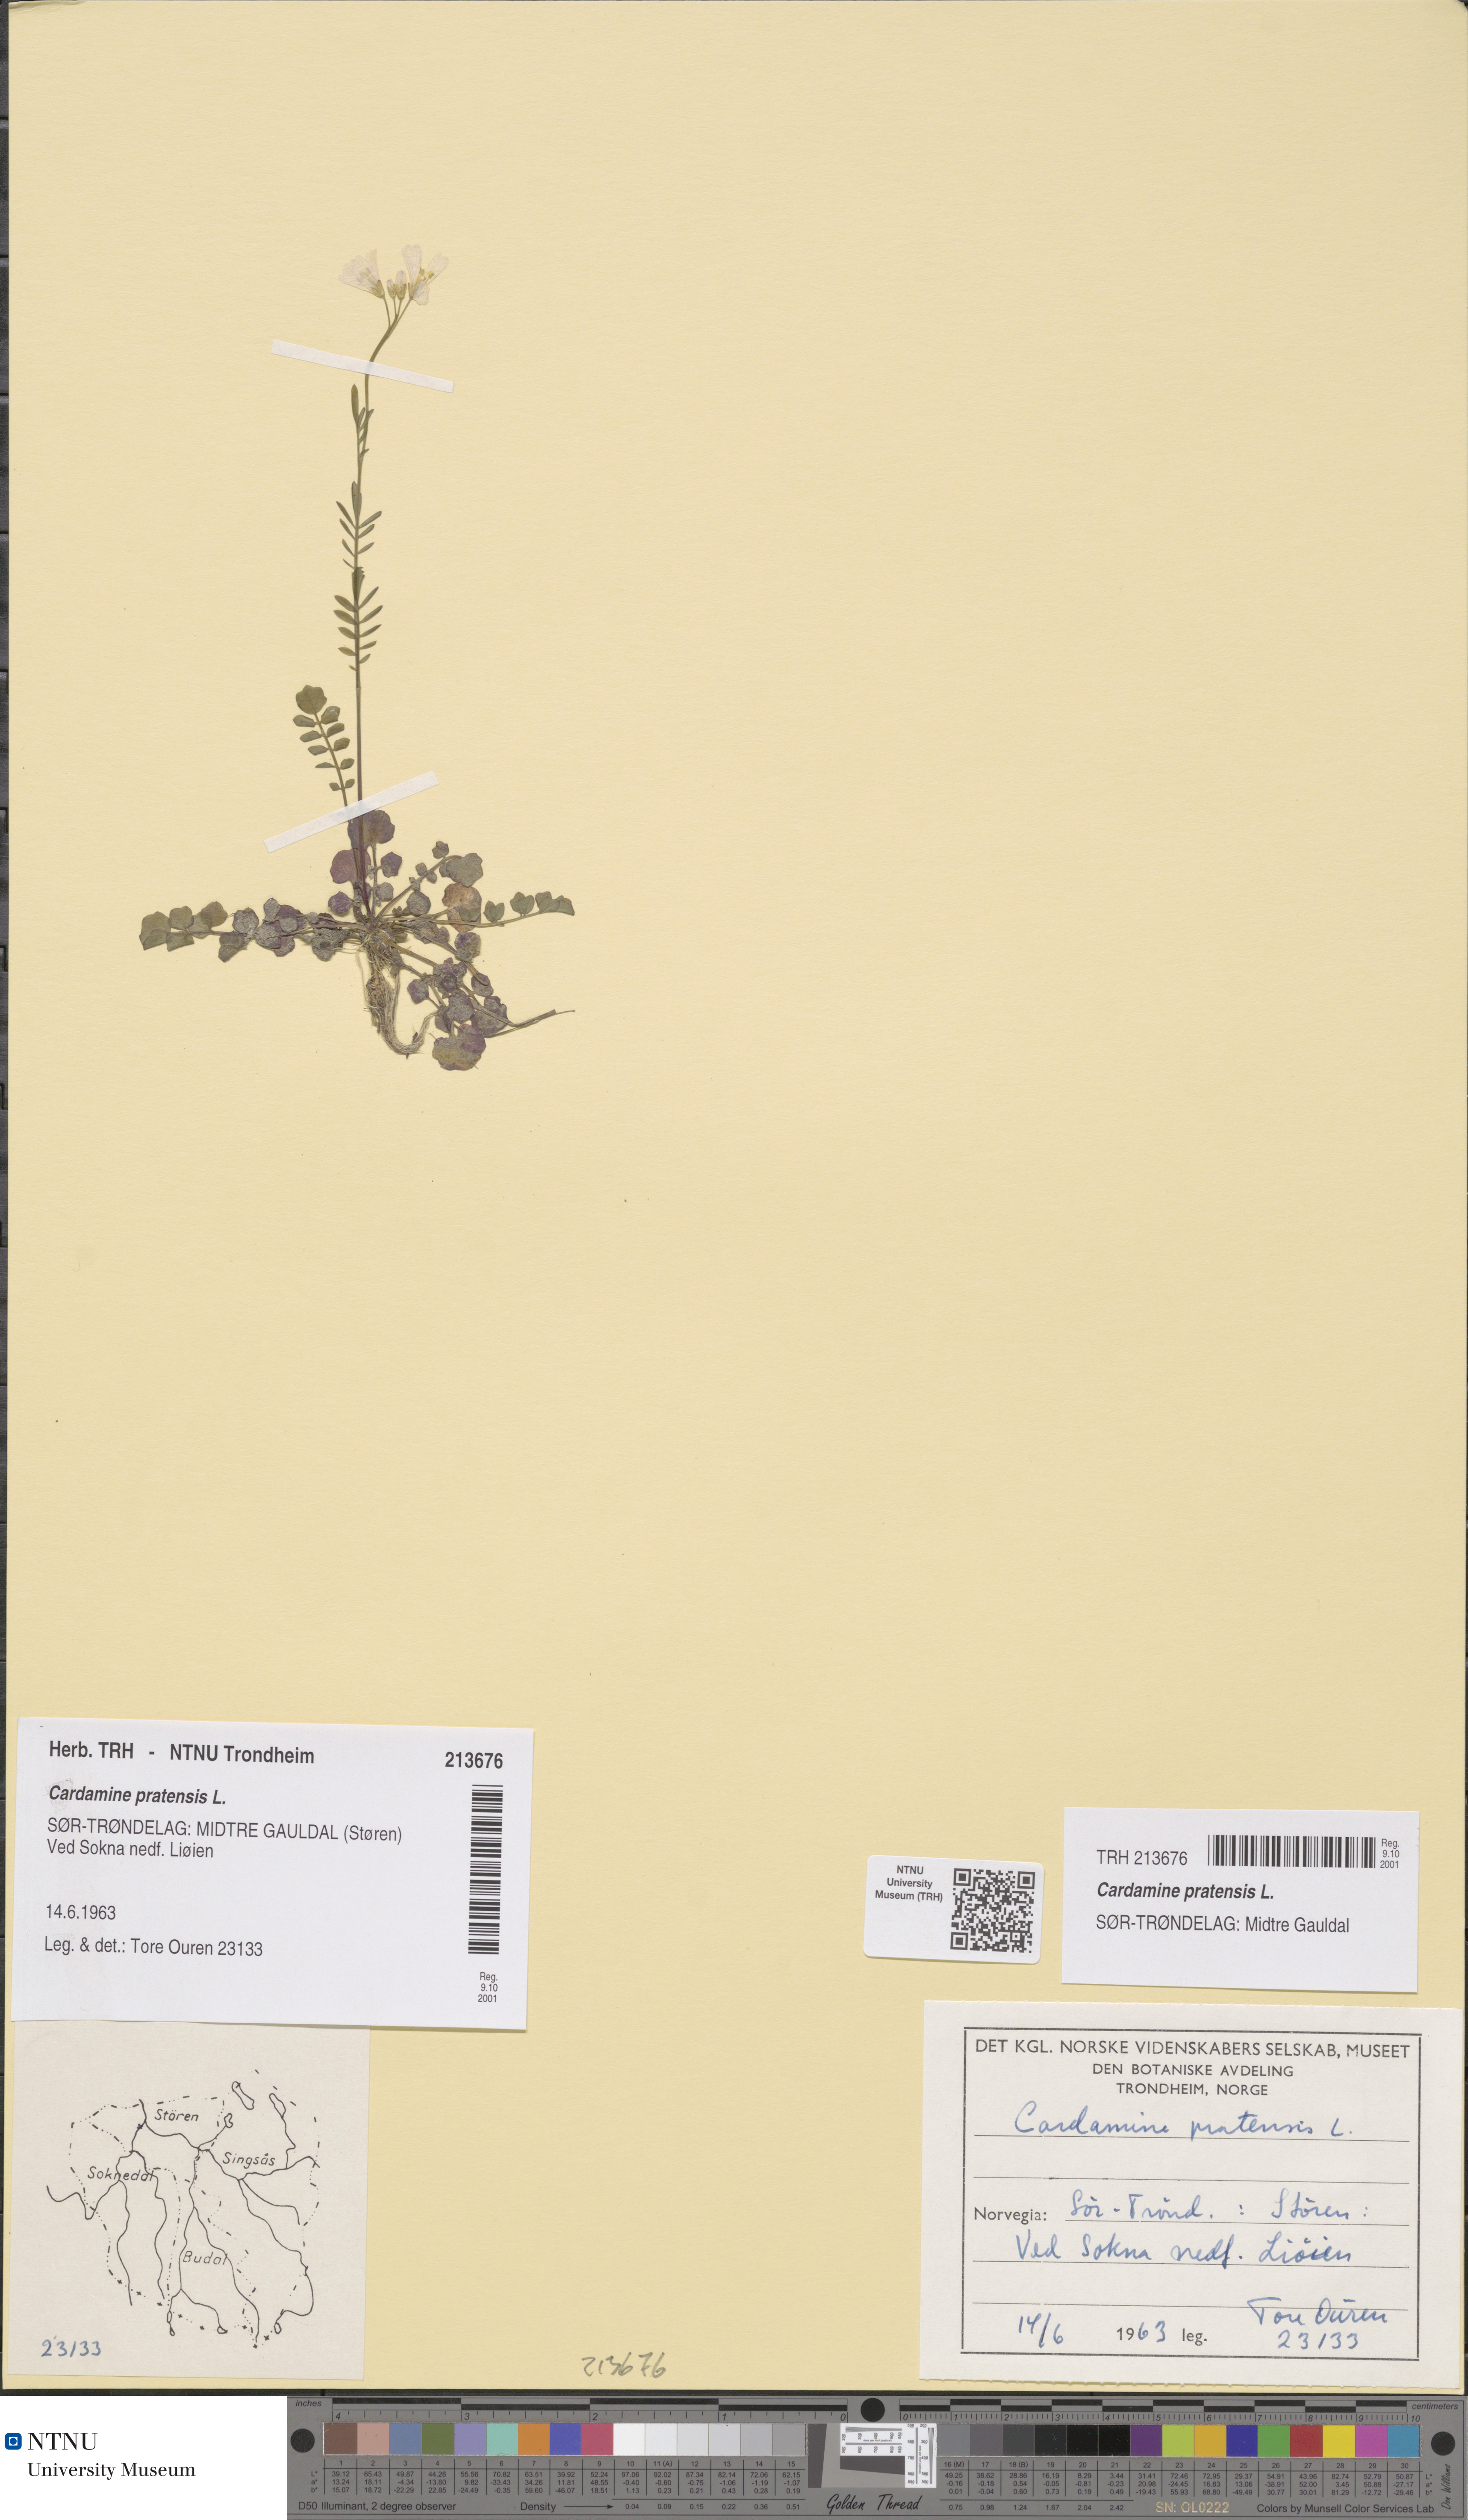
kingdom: Plantae
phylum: Tracheophyta
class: Magnoliopsida
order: Brassicales
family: Brassicaceae
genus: Cardamine
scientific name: Cardamine pratensis
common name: Cuckoo flower
